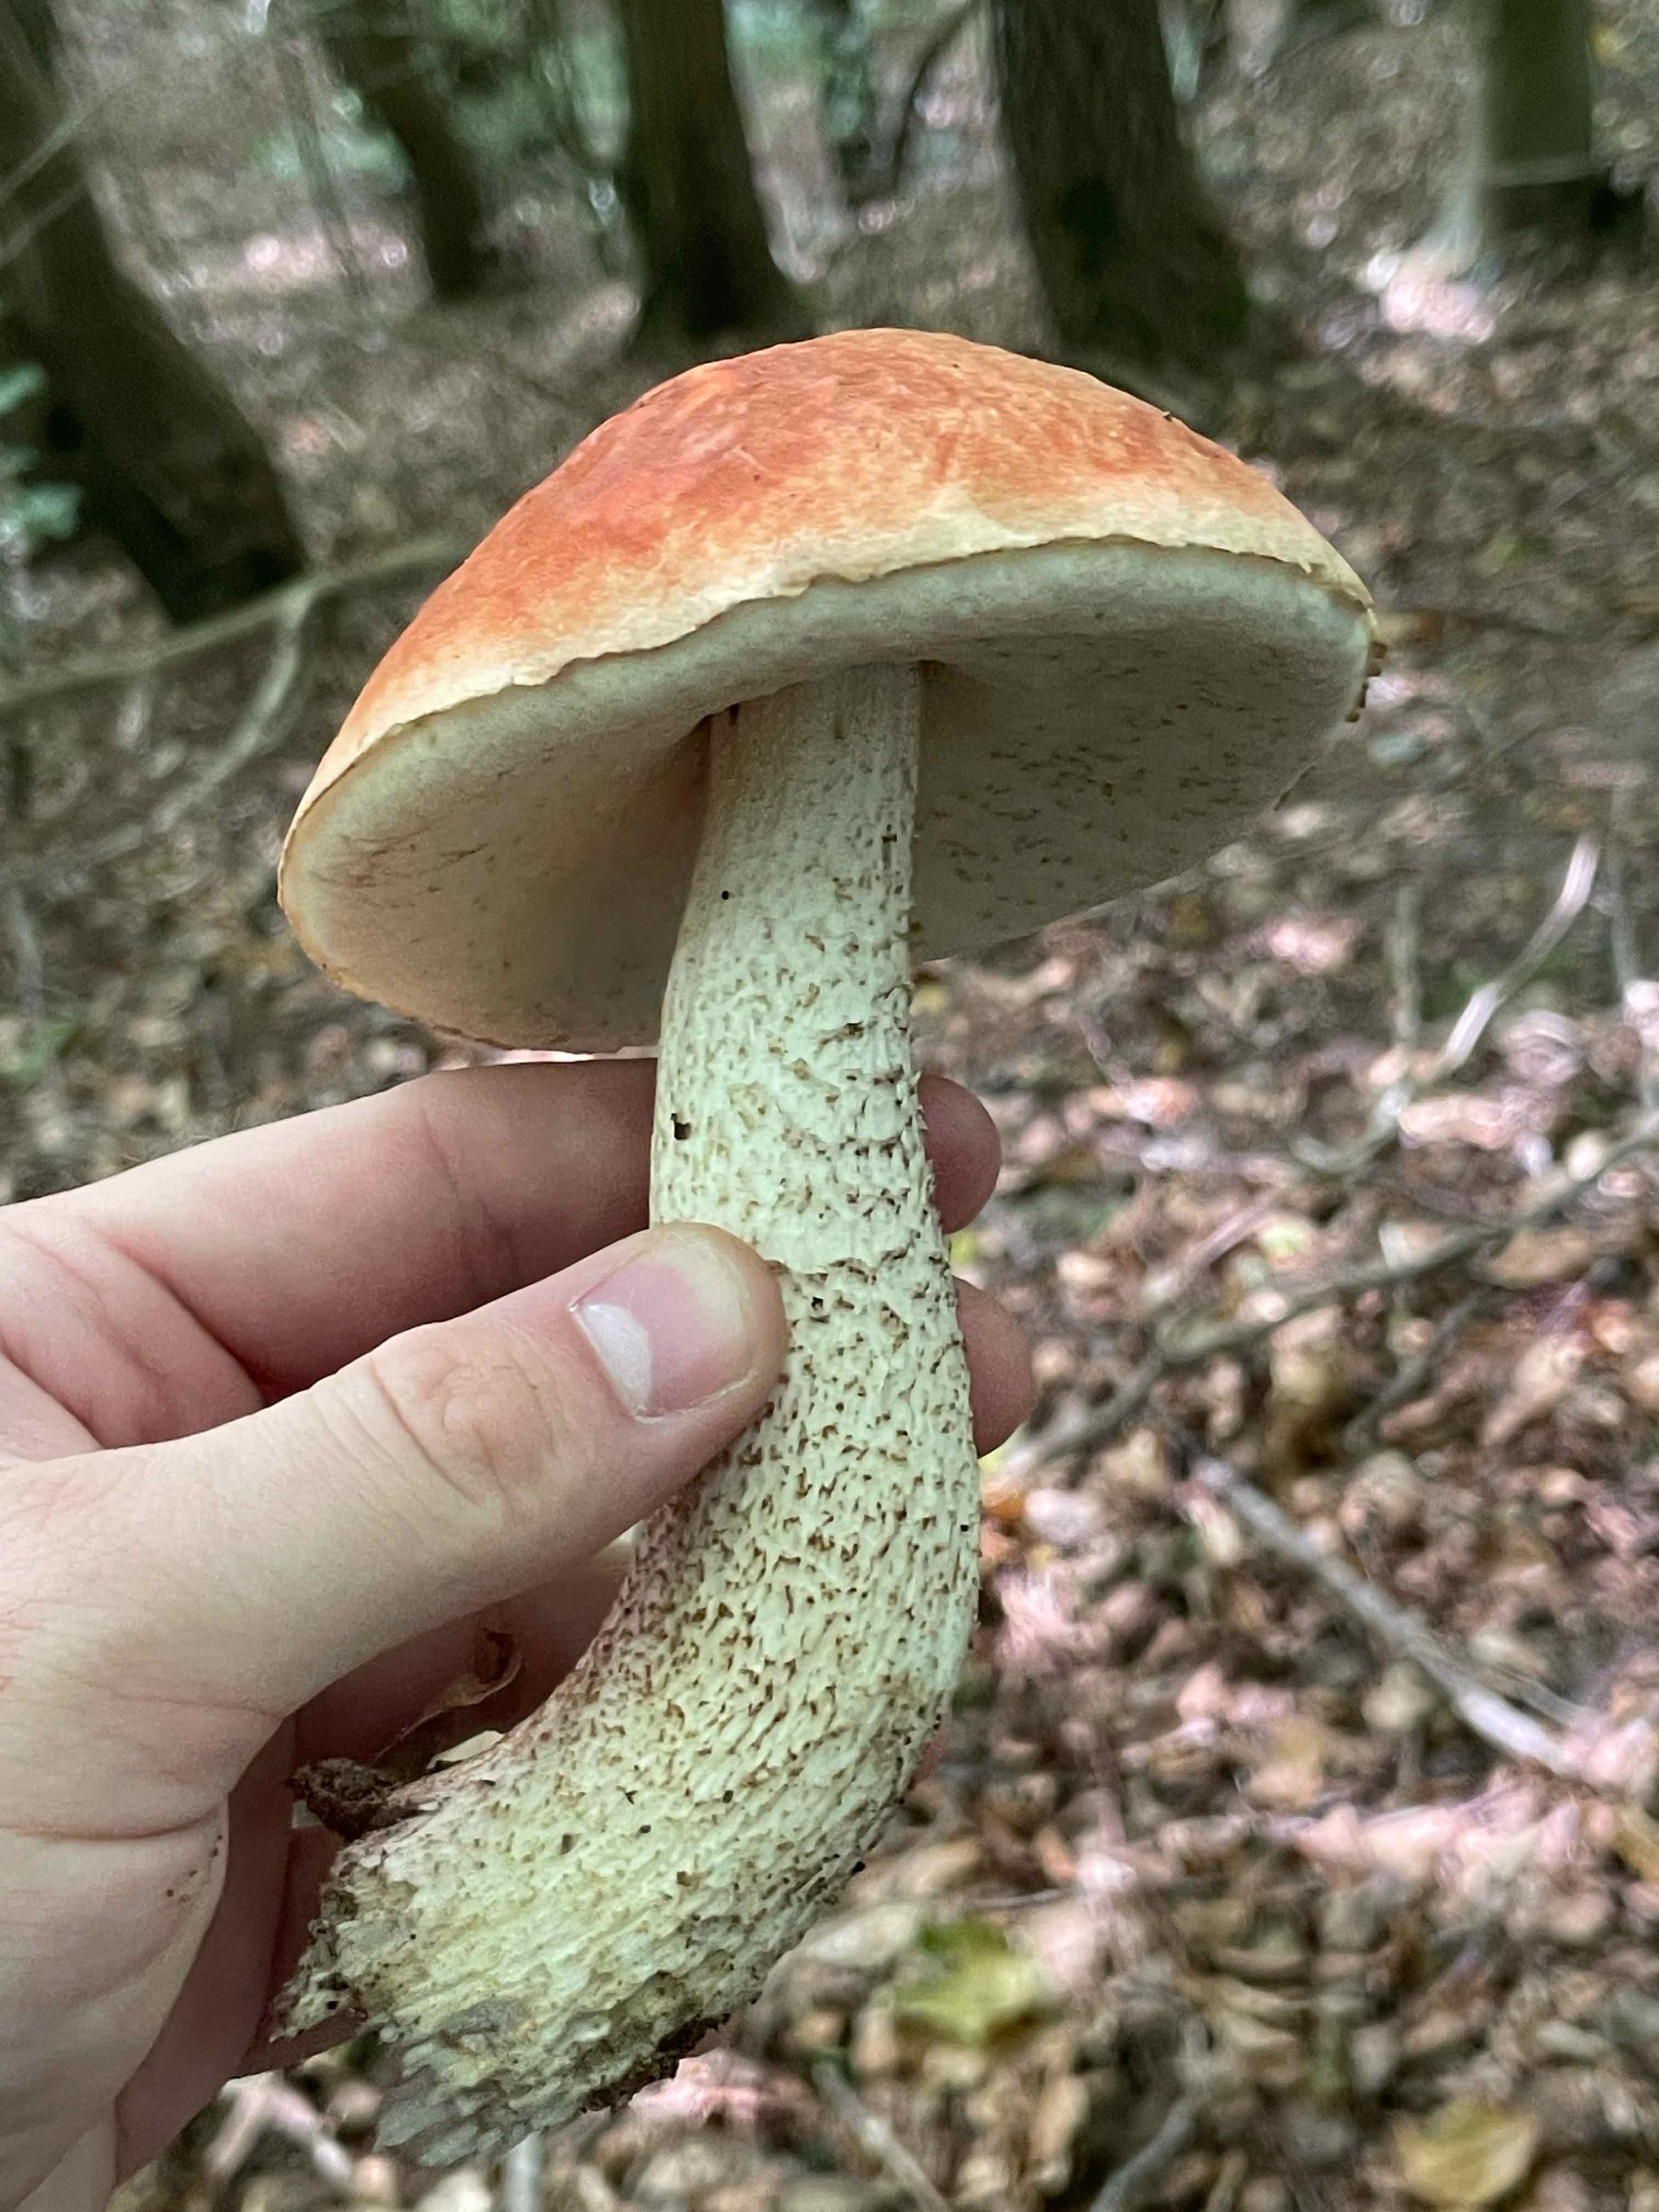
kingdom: Fungi
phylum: Basidiomycota
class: Agaricomycetes
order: Boletales
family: Boletaceae
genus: Leccinum
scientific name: Leccinum aurantiacum
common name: rustrød skælrørhat
